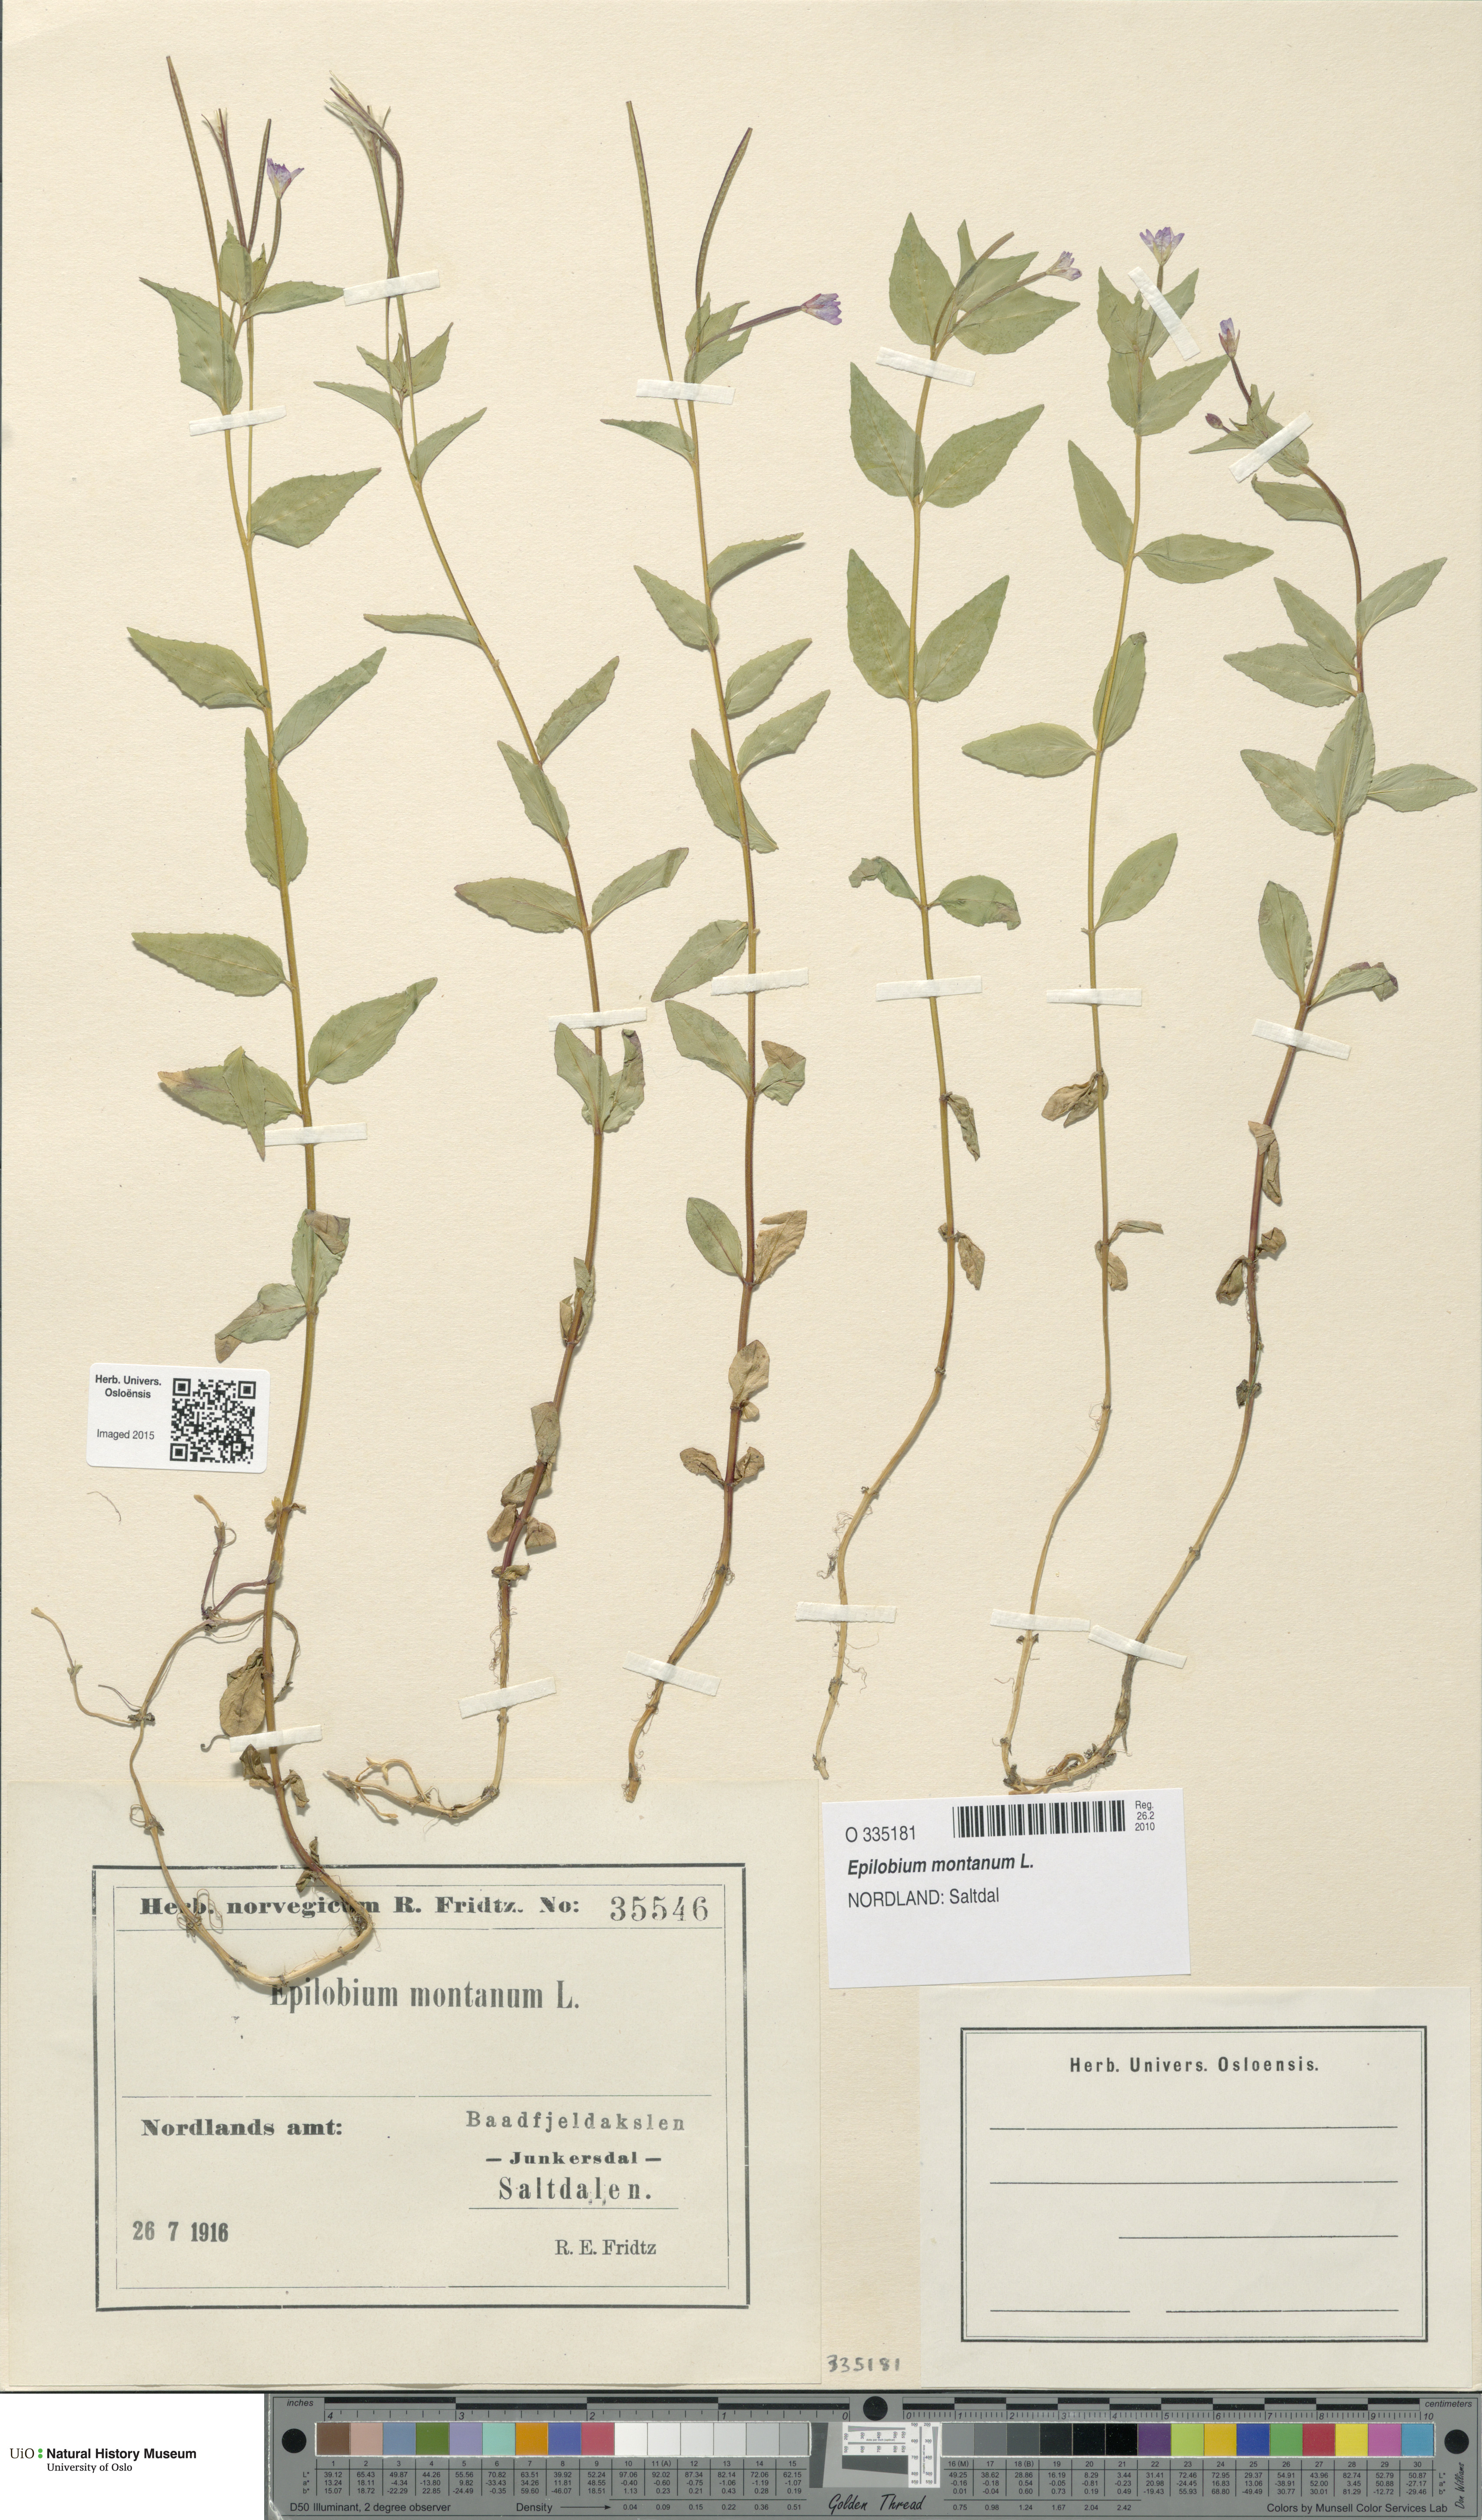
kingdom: Plantae
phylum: Tracheophyta
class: Magnoliopsida
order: Myrtales
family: Onagraceae
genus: Epilobium
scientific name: Epilobium montanum
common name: Broad-leaved willowherb
